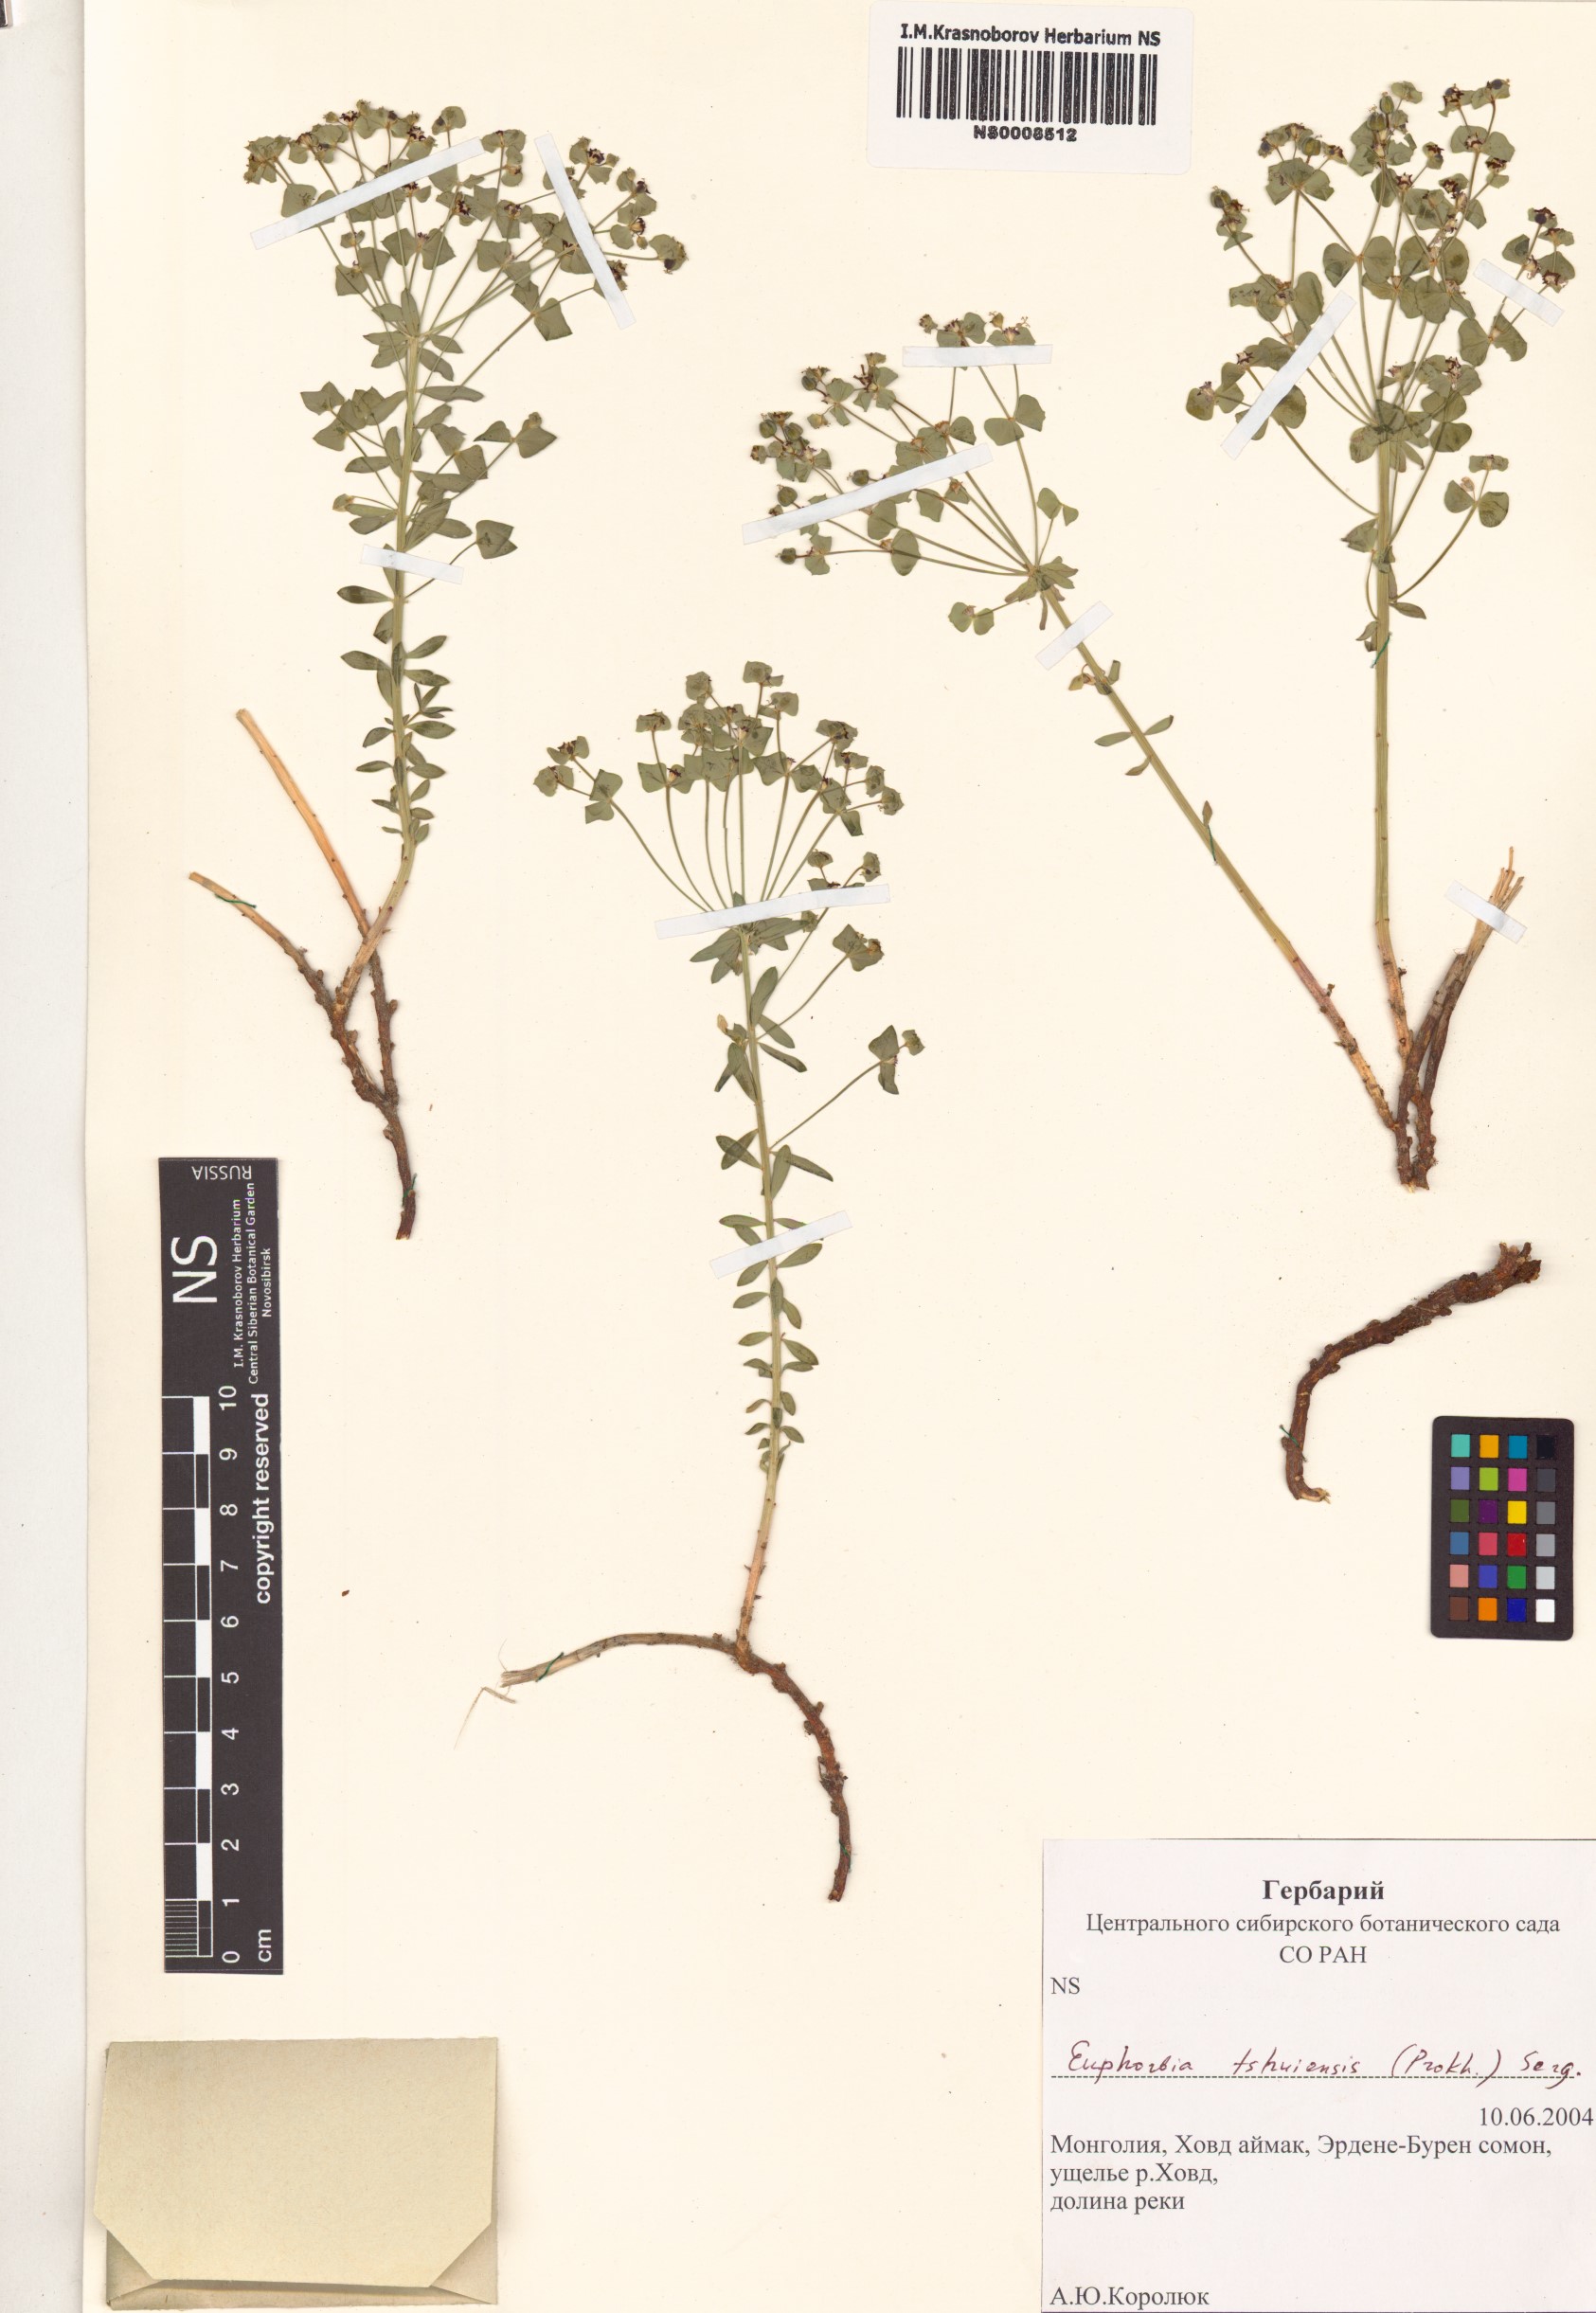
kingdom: Plantae
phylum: Tracheophyta
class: Magnoliopsida
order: Malpighiales
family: Euphorbiaceae
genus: Euphorbia
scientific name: Euphorbia tshuiensis
